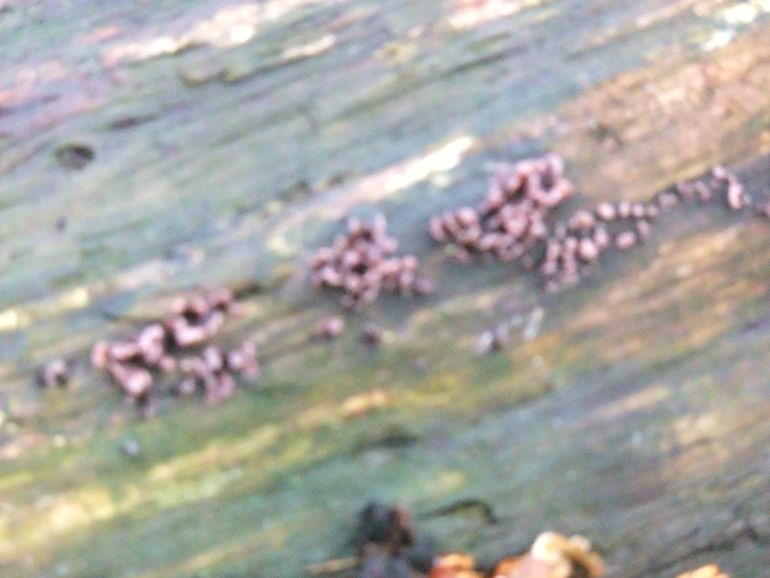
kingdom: Fungi
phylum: Ascomycota
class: Leotiomycetes
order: Helotiales
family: Gelatinodiscaceae
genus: Ascocoryne
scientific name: Ascocoryne sarcoides
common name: rødlilla sejskive
